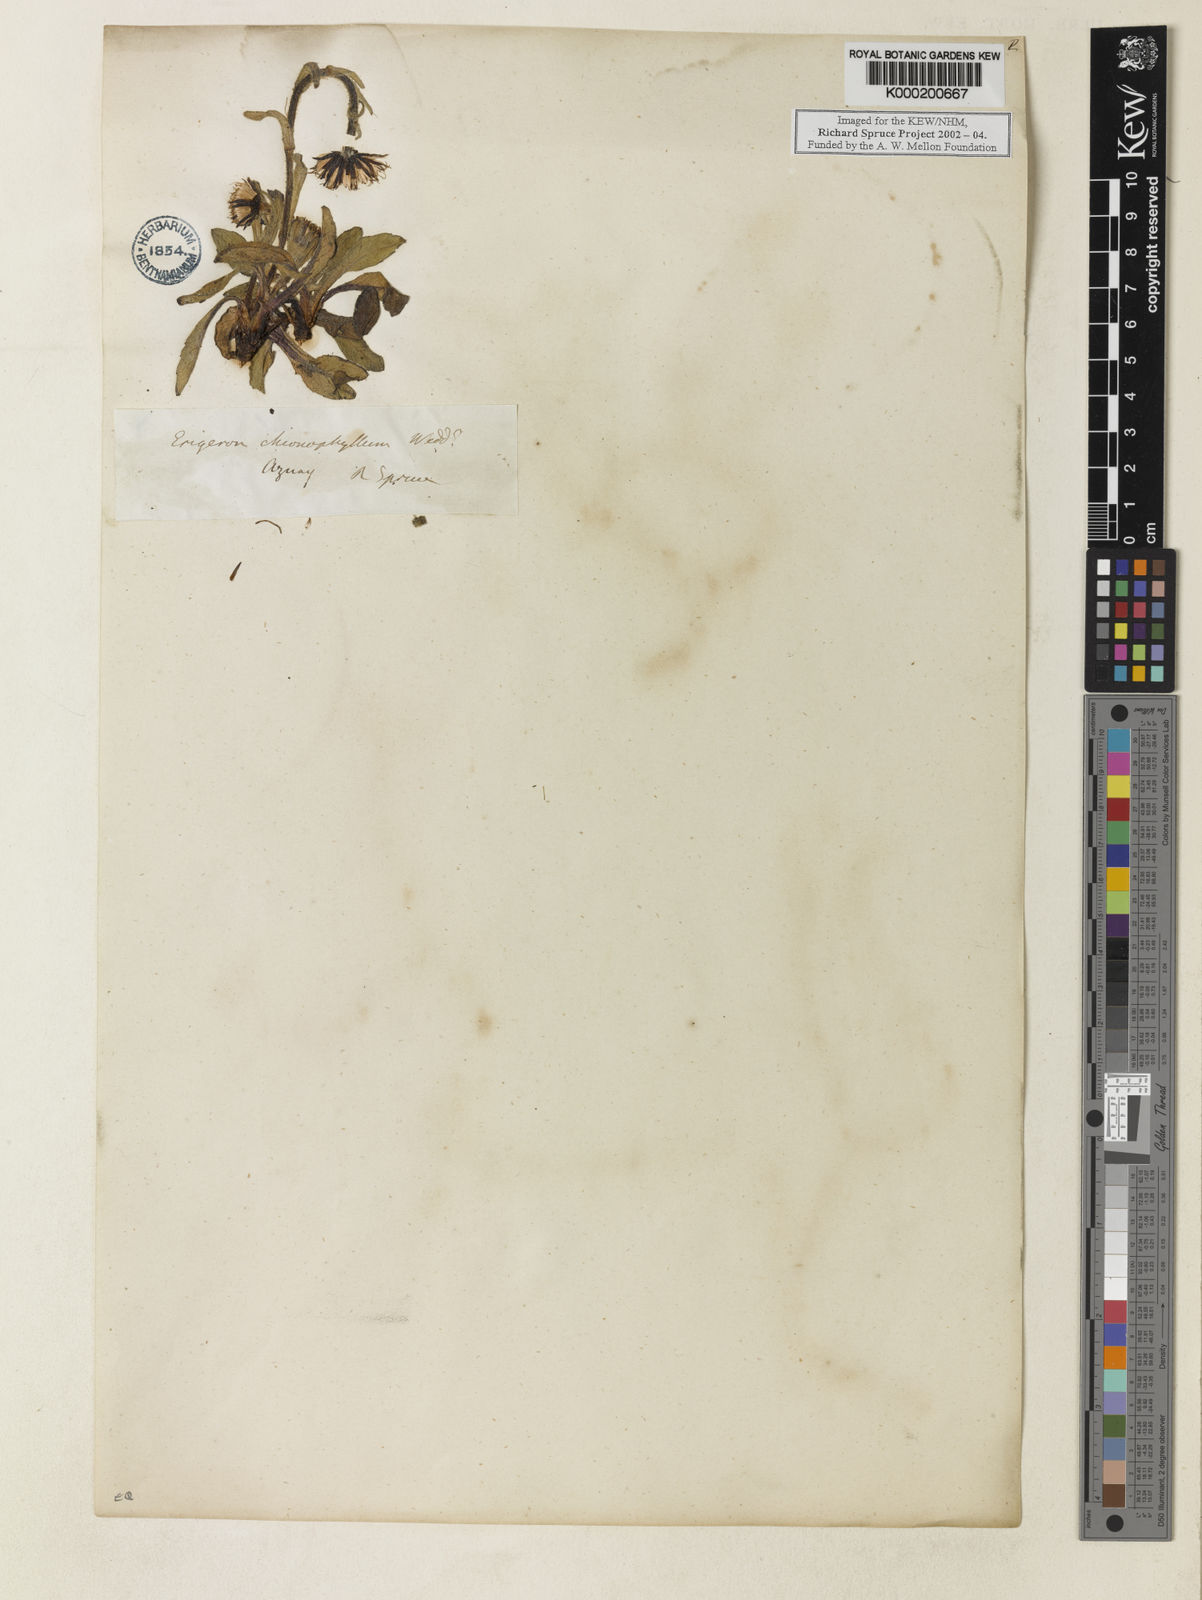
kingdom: Plantae
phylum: Tracheophyta
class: Magnoliopsida
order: Asterales
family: Asteraceae
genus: Erigeron
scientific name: Erigeron
